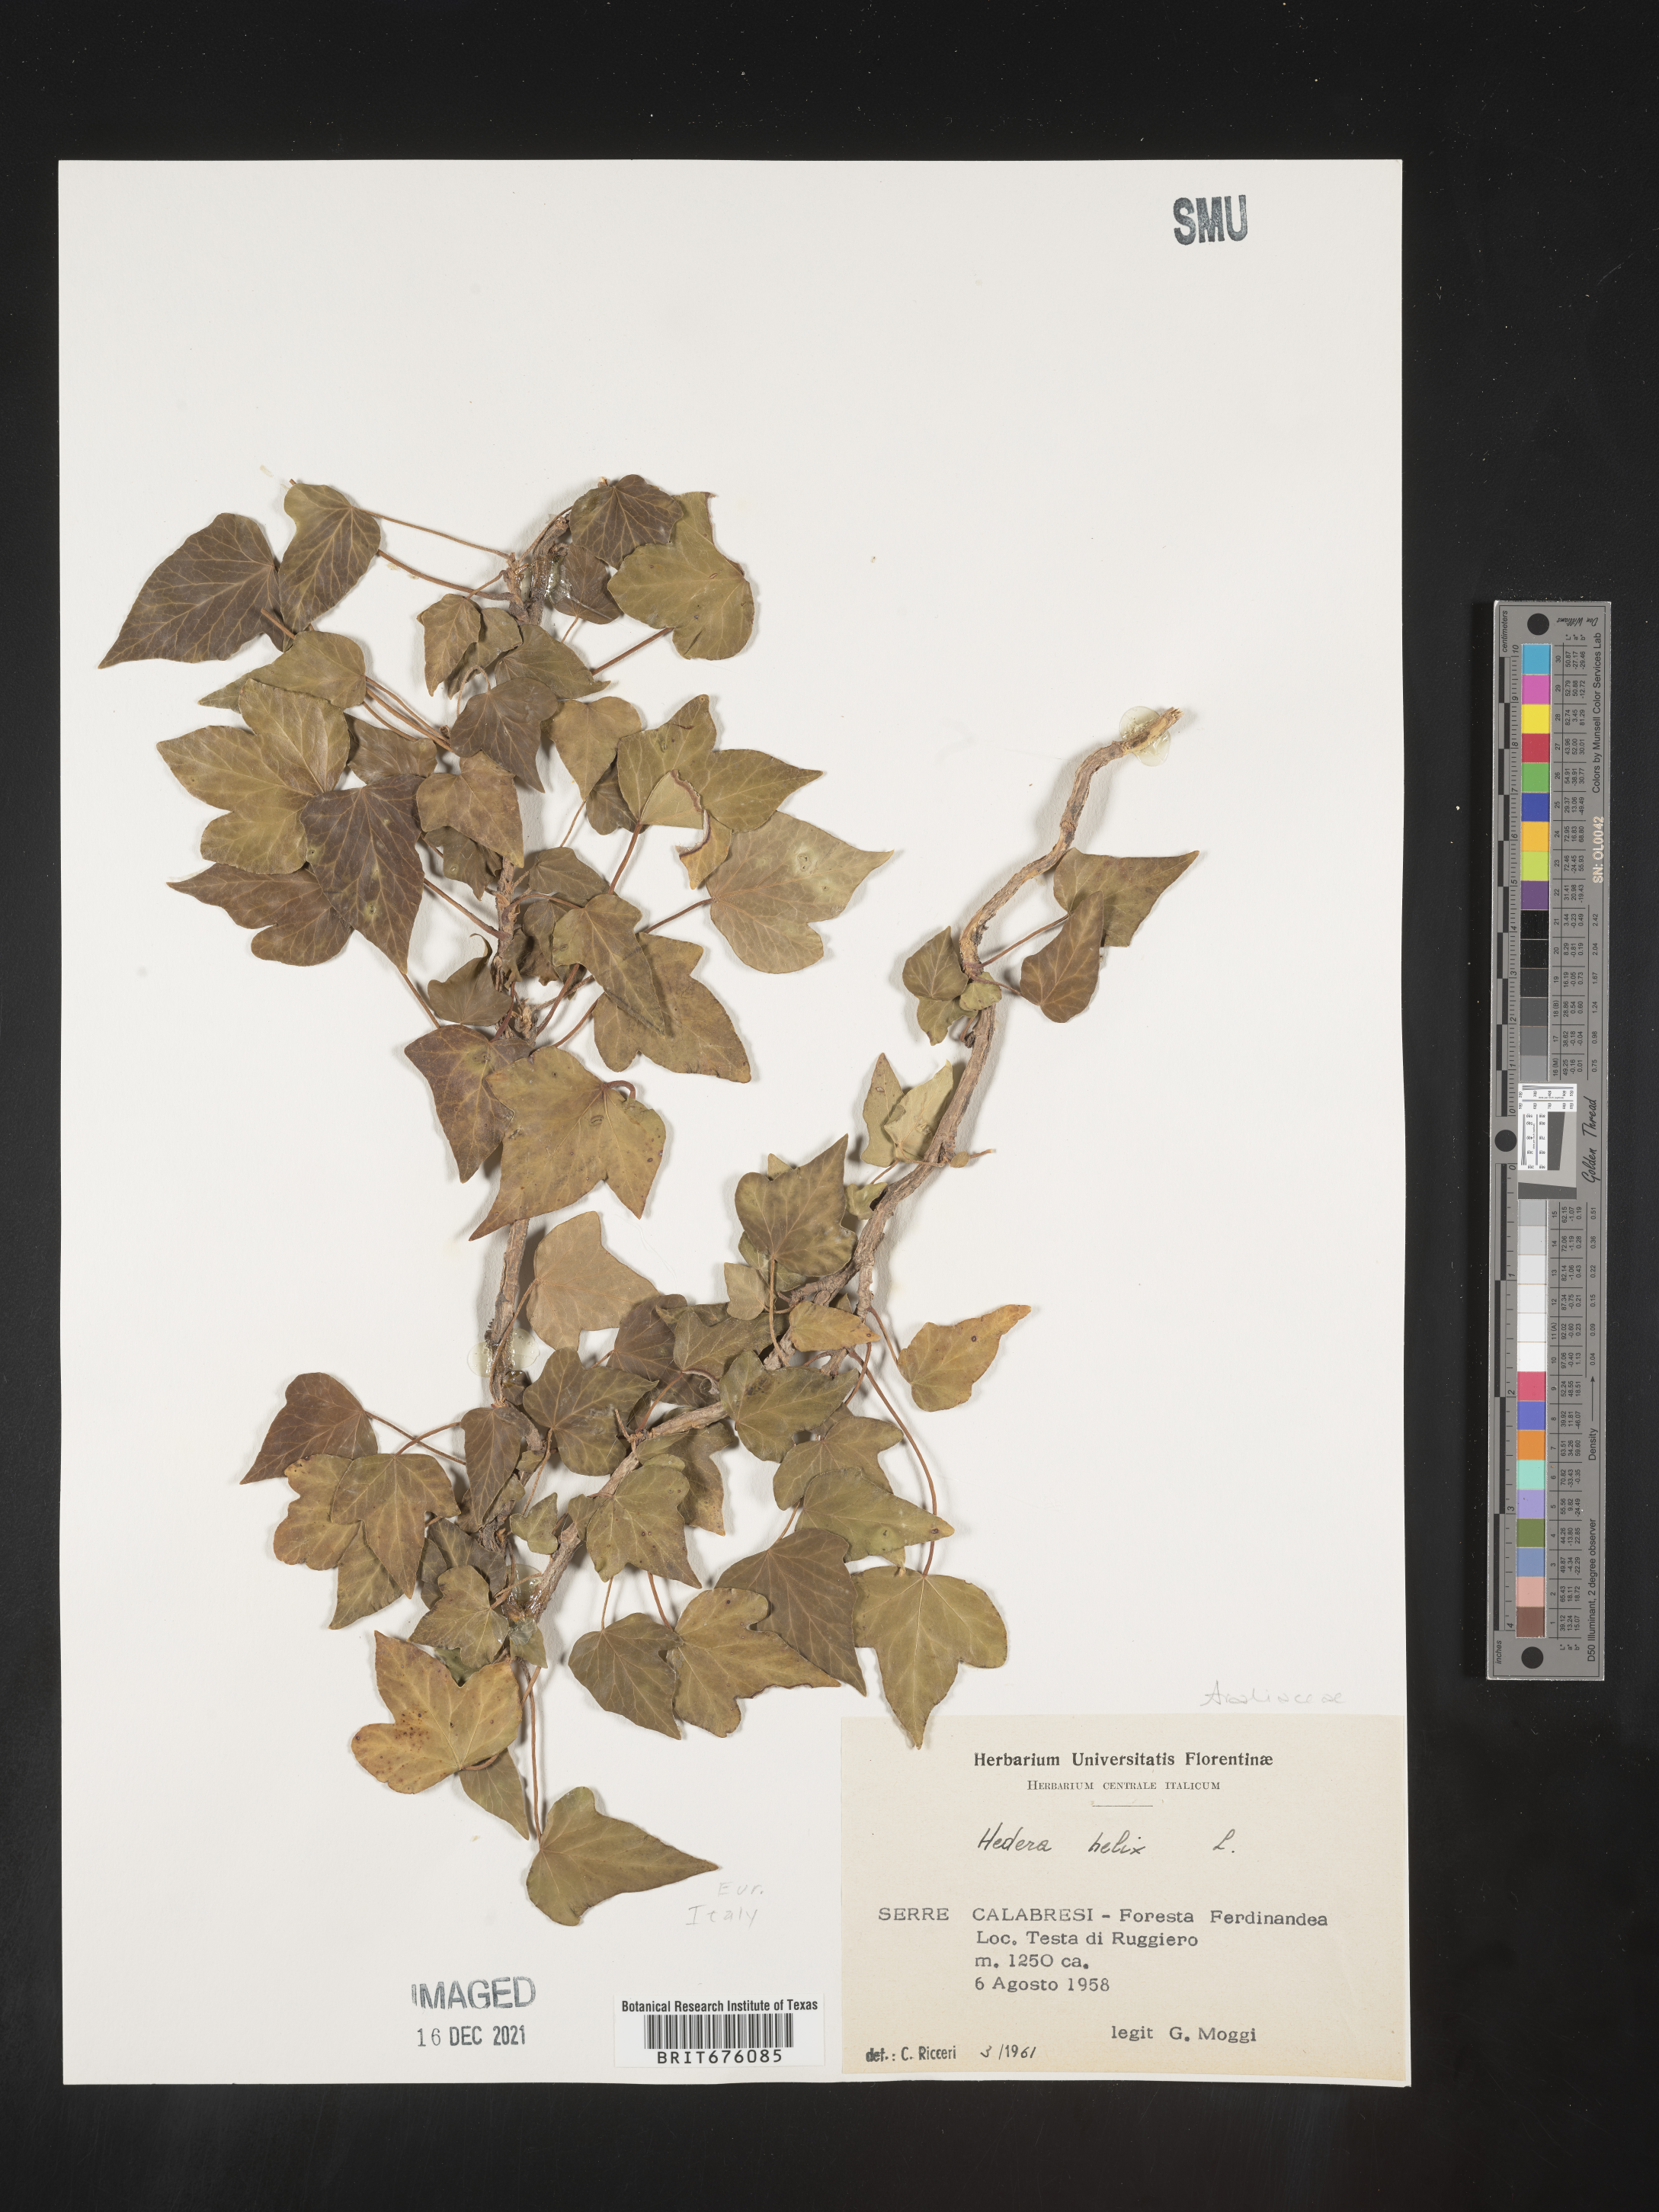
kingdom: Plantae
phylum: Tracheophyta
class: Magnoliopsida
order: Apiales
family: Araliaceae
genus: Hedera
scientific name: Hedera
